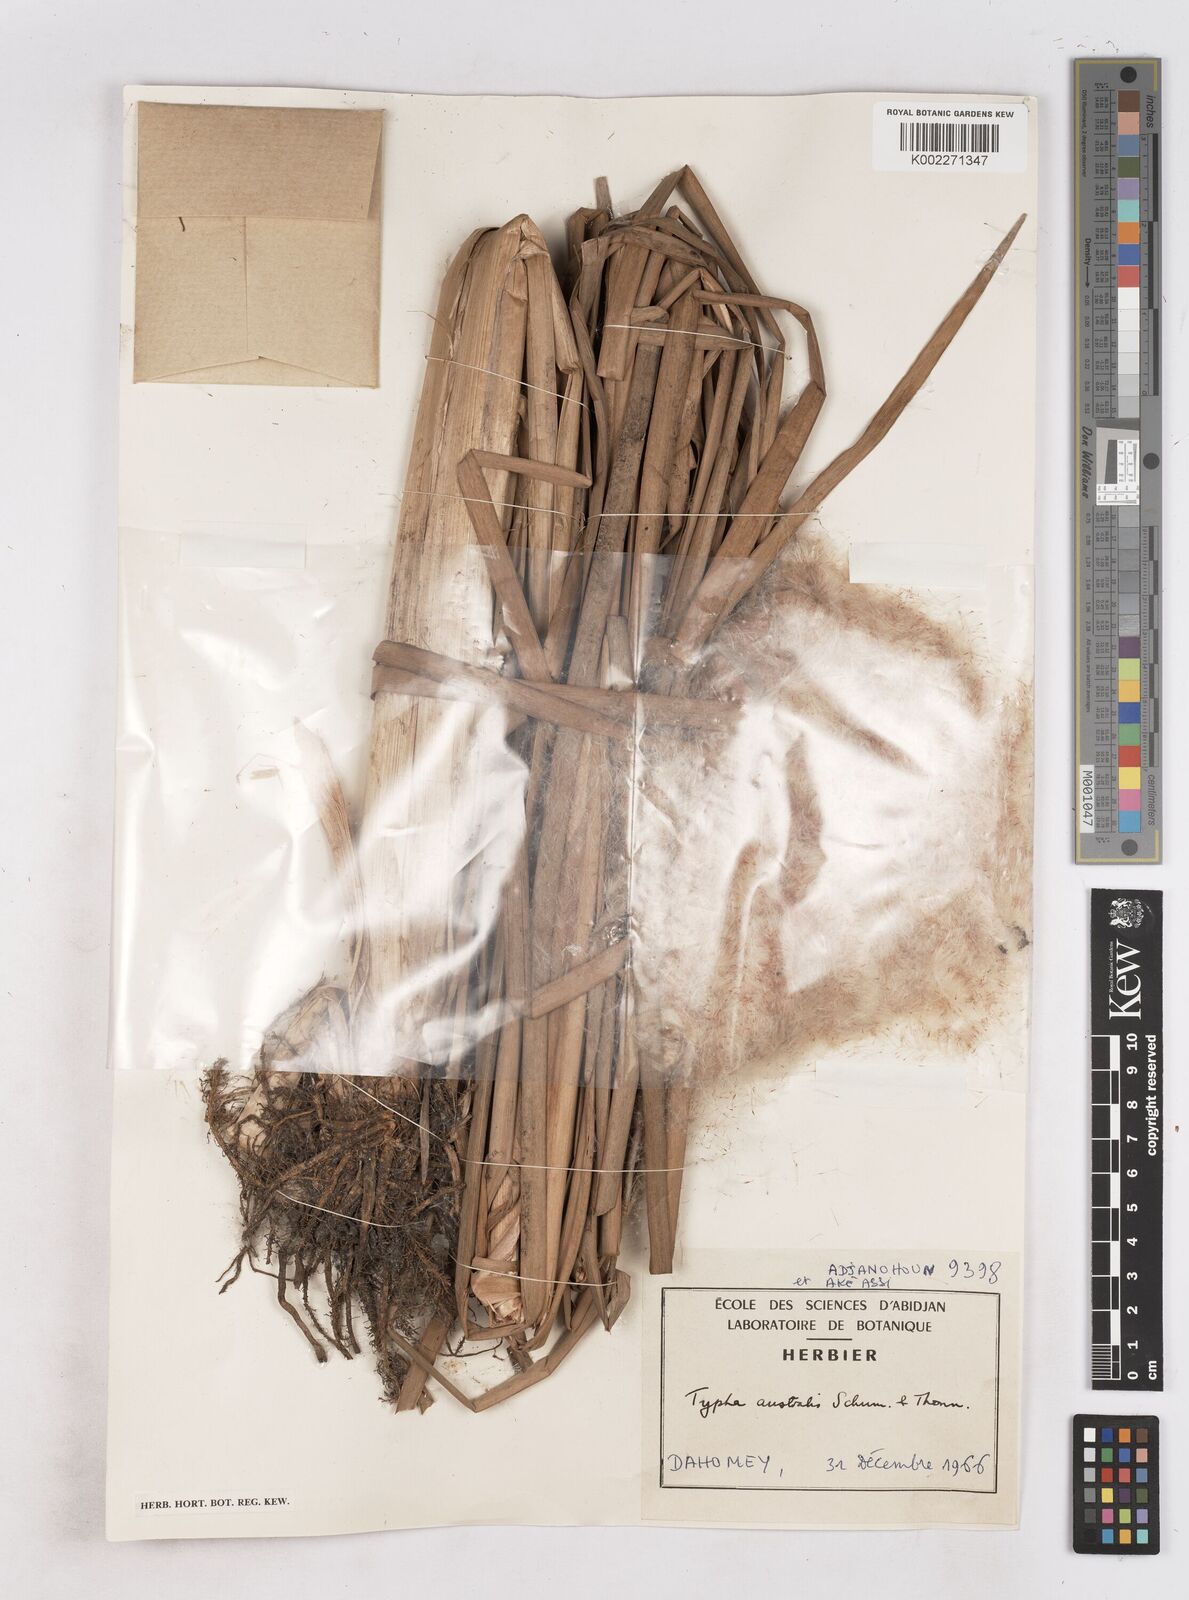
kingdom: Plantae
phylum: Tracheophyta
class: Liliopsida
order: Poales
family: Typhaceae
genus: Typha
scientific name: Typha domingensis
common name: Southern cattail
